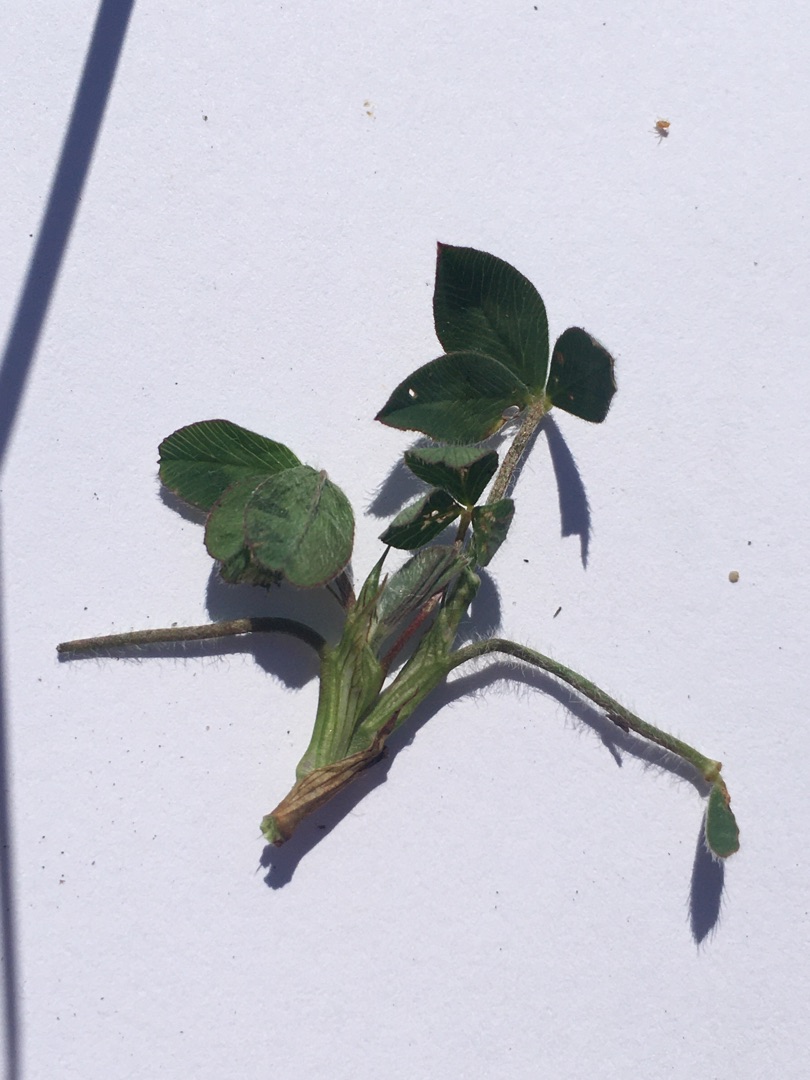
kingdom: Plantae
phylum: Tracheophyta
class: Magnoliopsida
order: Fabales
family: Fabaceae
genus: Trifolium
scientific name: Trifolium pratense
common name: Rød-kløver
